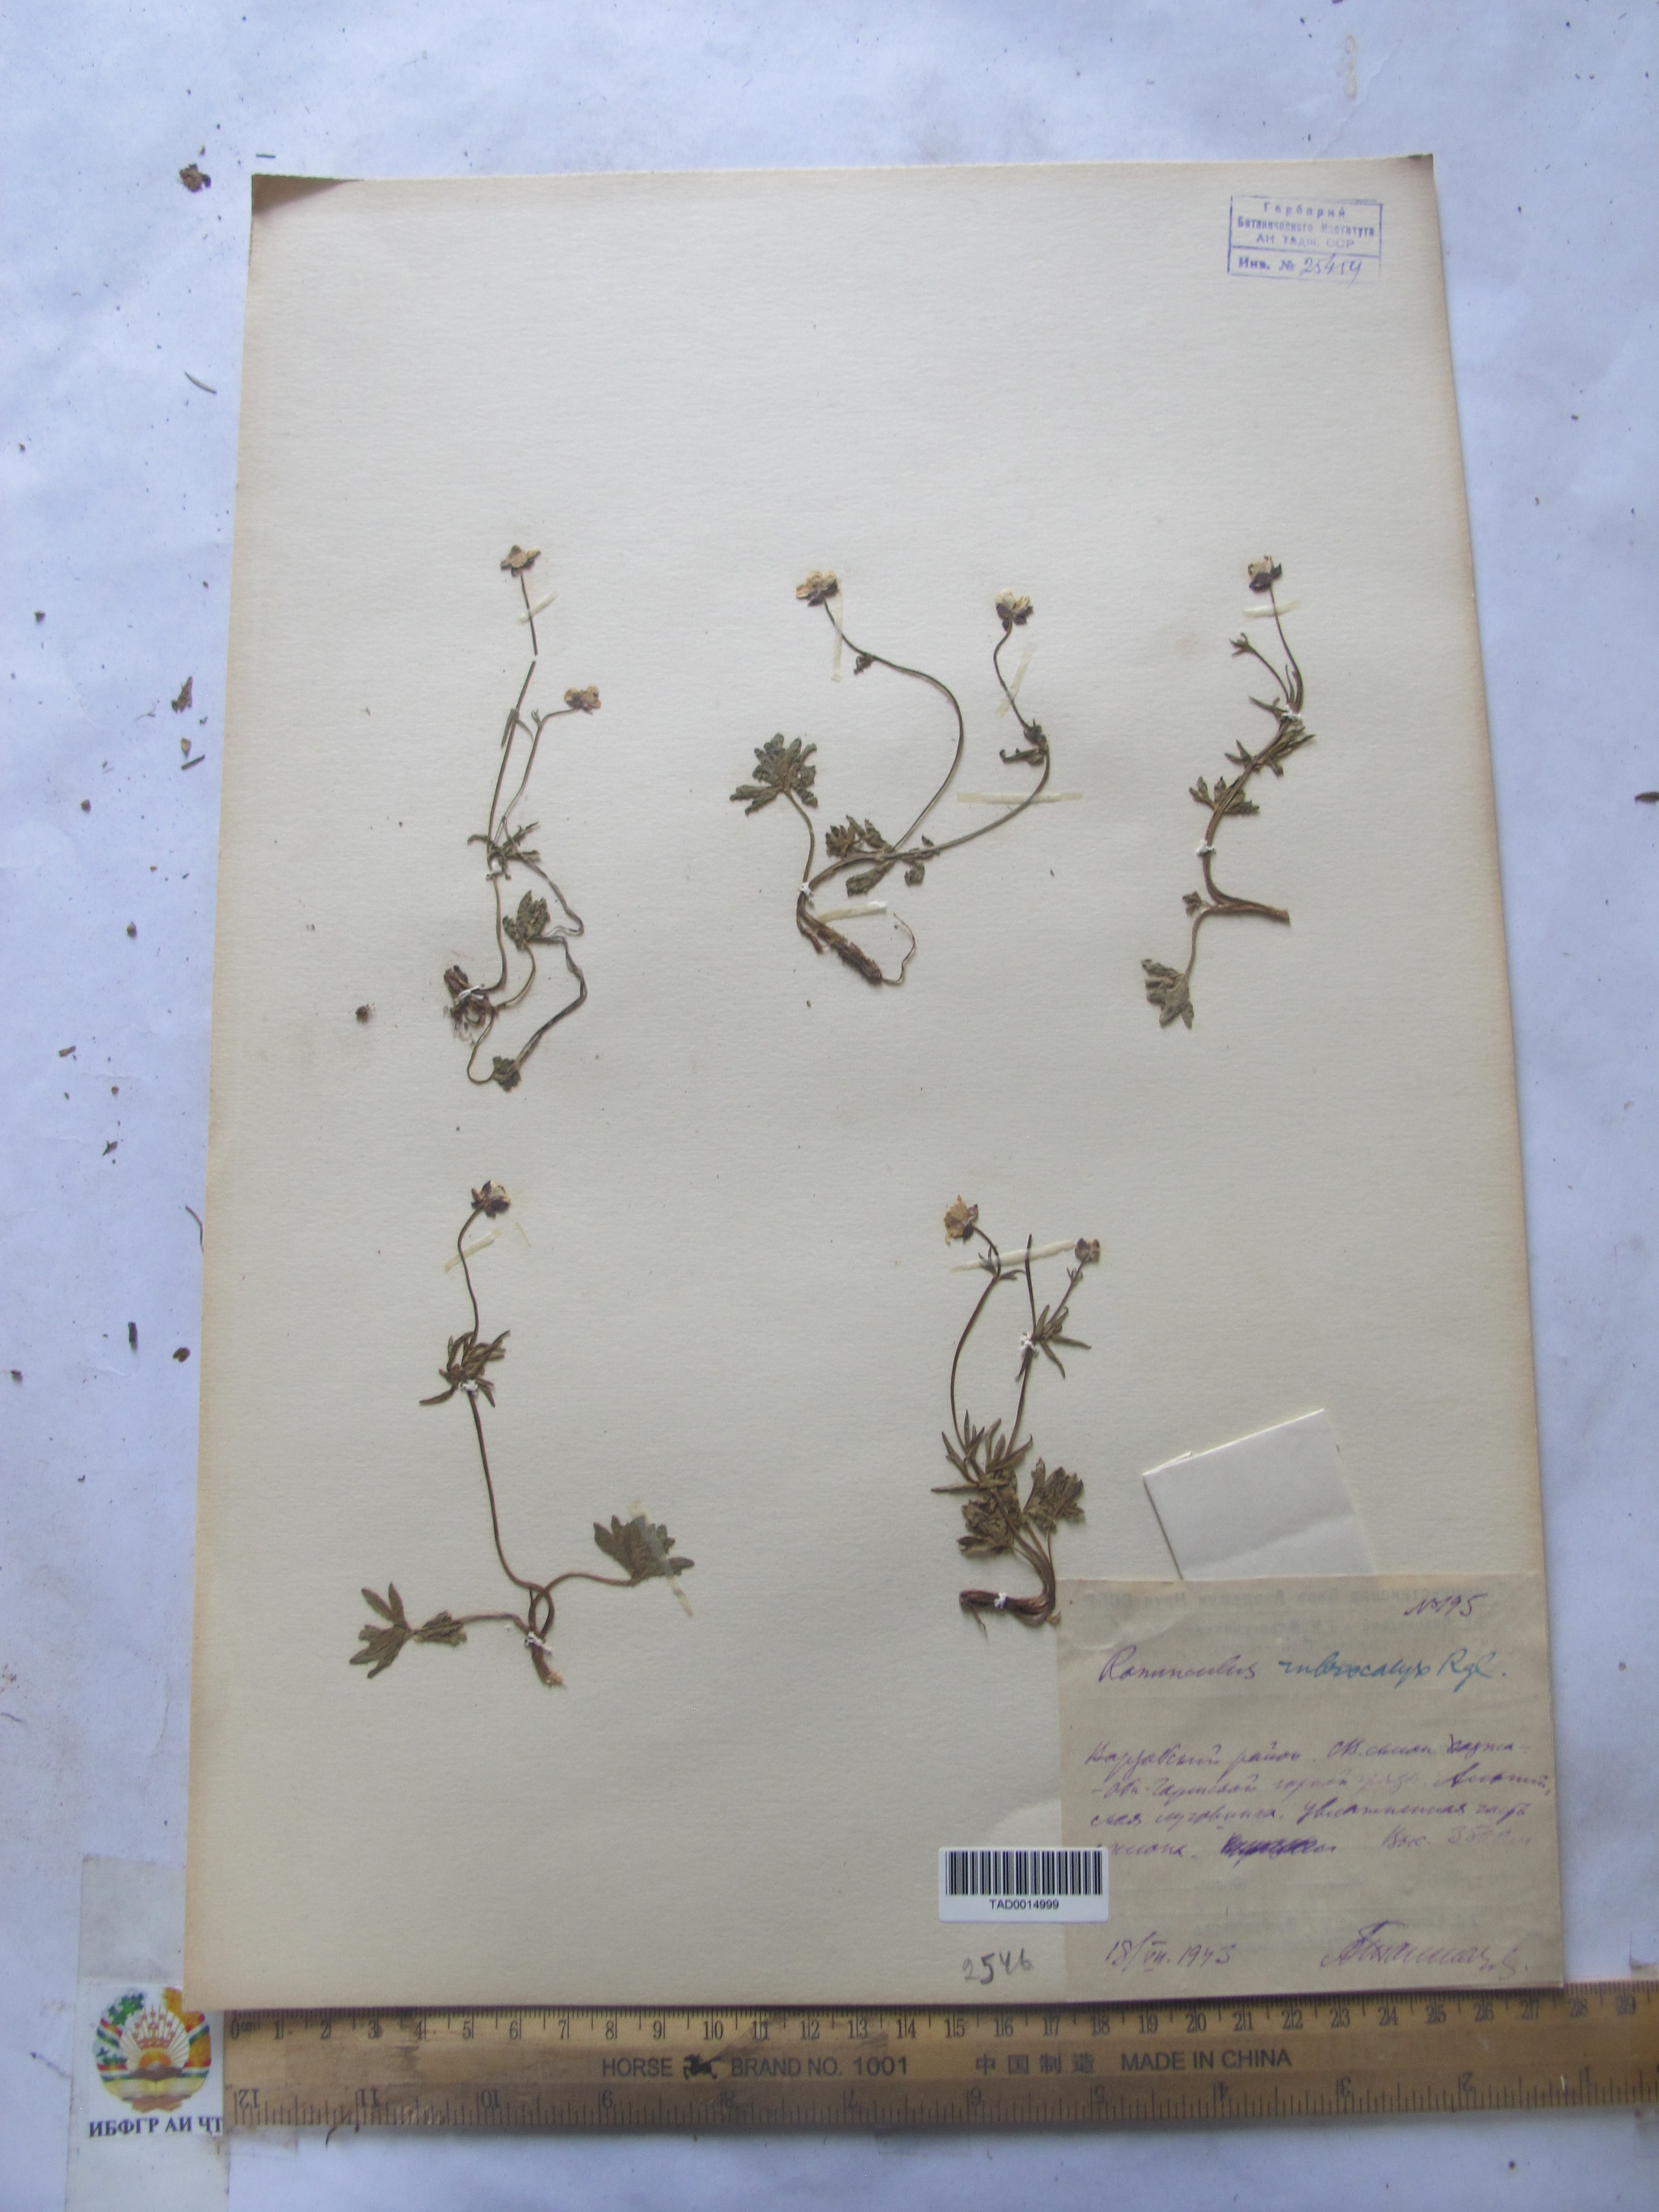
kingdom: Plantae
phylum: Tracheophyta
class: Magnoliopsida
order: Ranunculales
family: Ranunculaceae
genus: Ranunculus
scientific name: Ranunculus rubrocalyx
